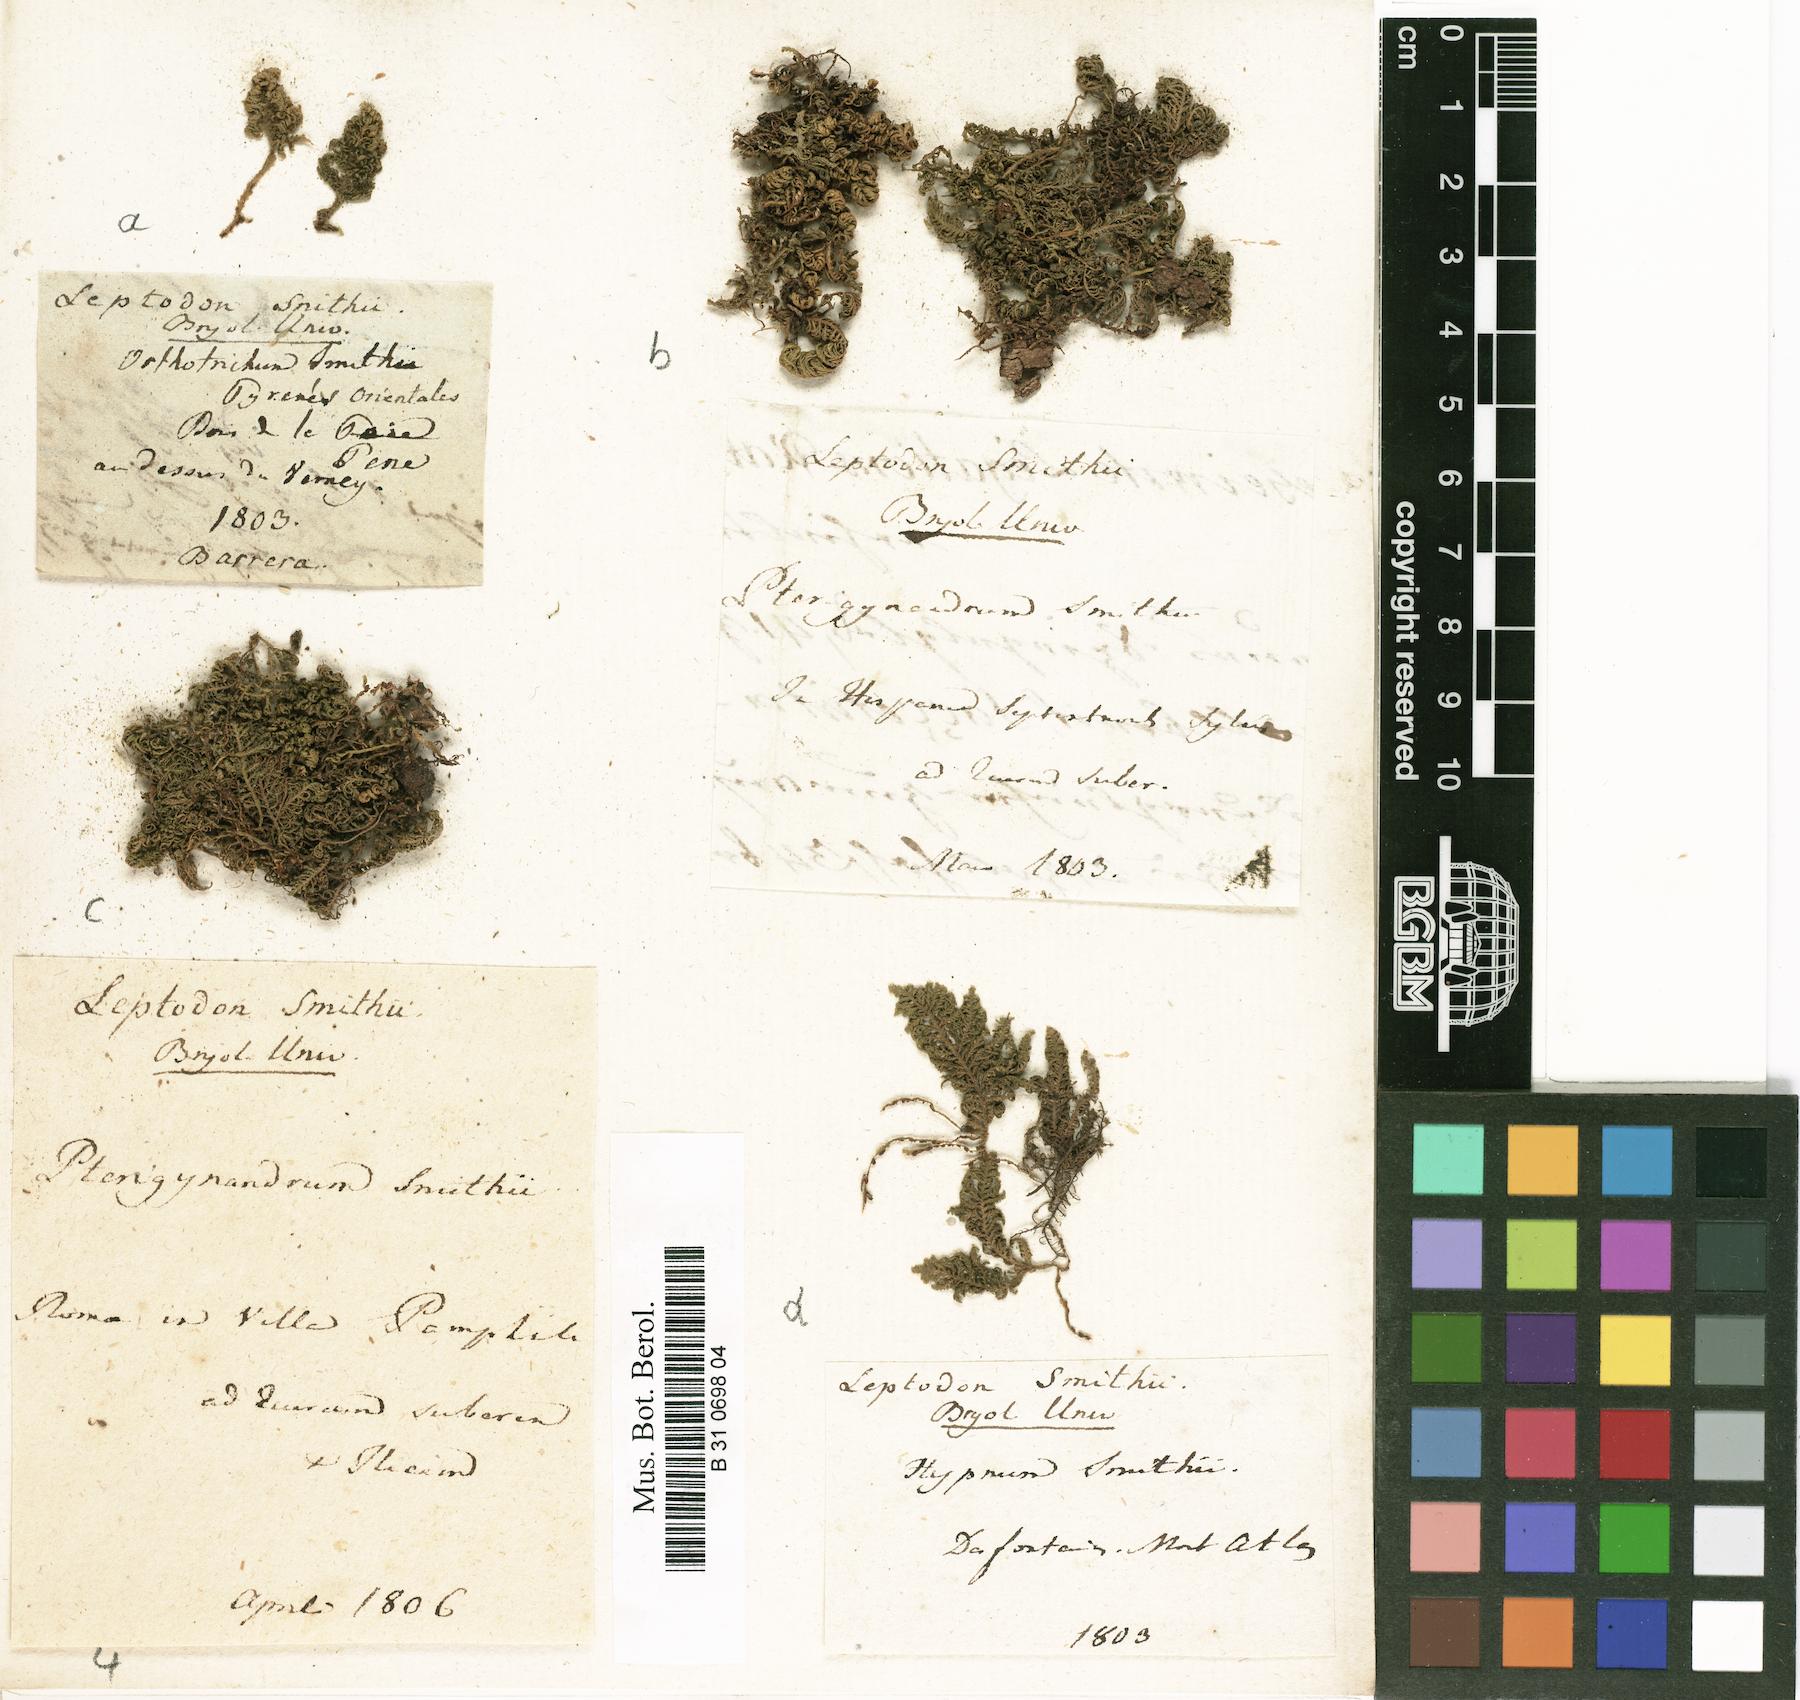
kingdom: Plantae
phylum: Bryophyta
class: Bryopsida
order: Hypnales
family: Neckeraceae
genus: Leptodon
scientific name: Leptodon smithii
